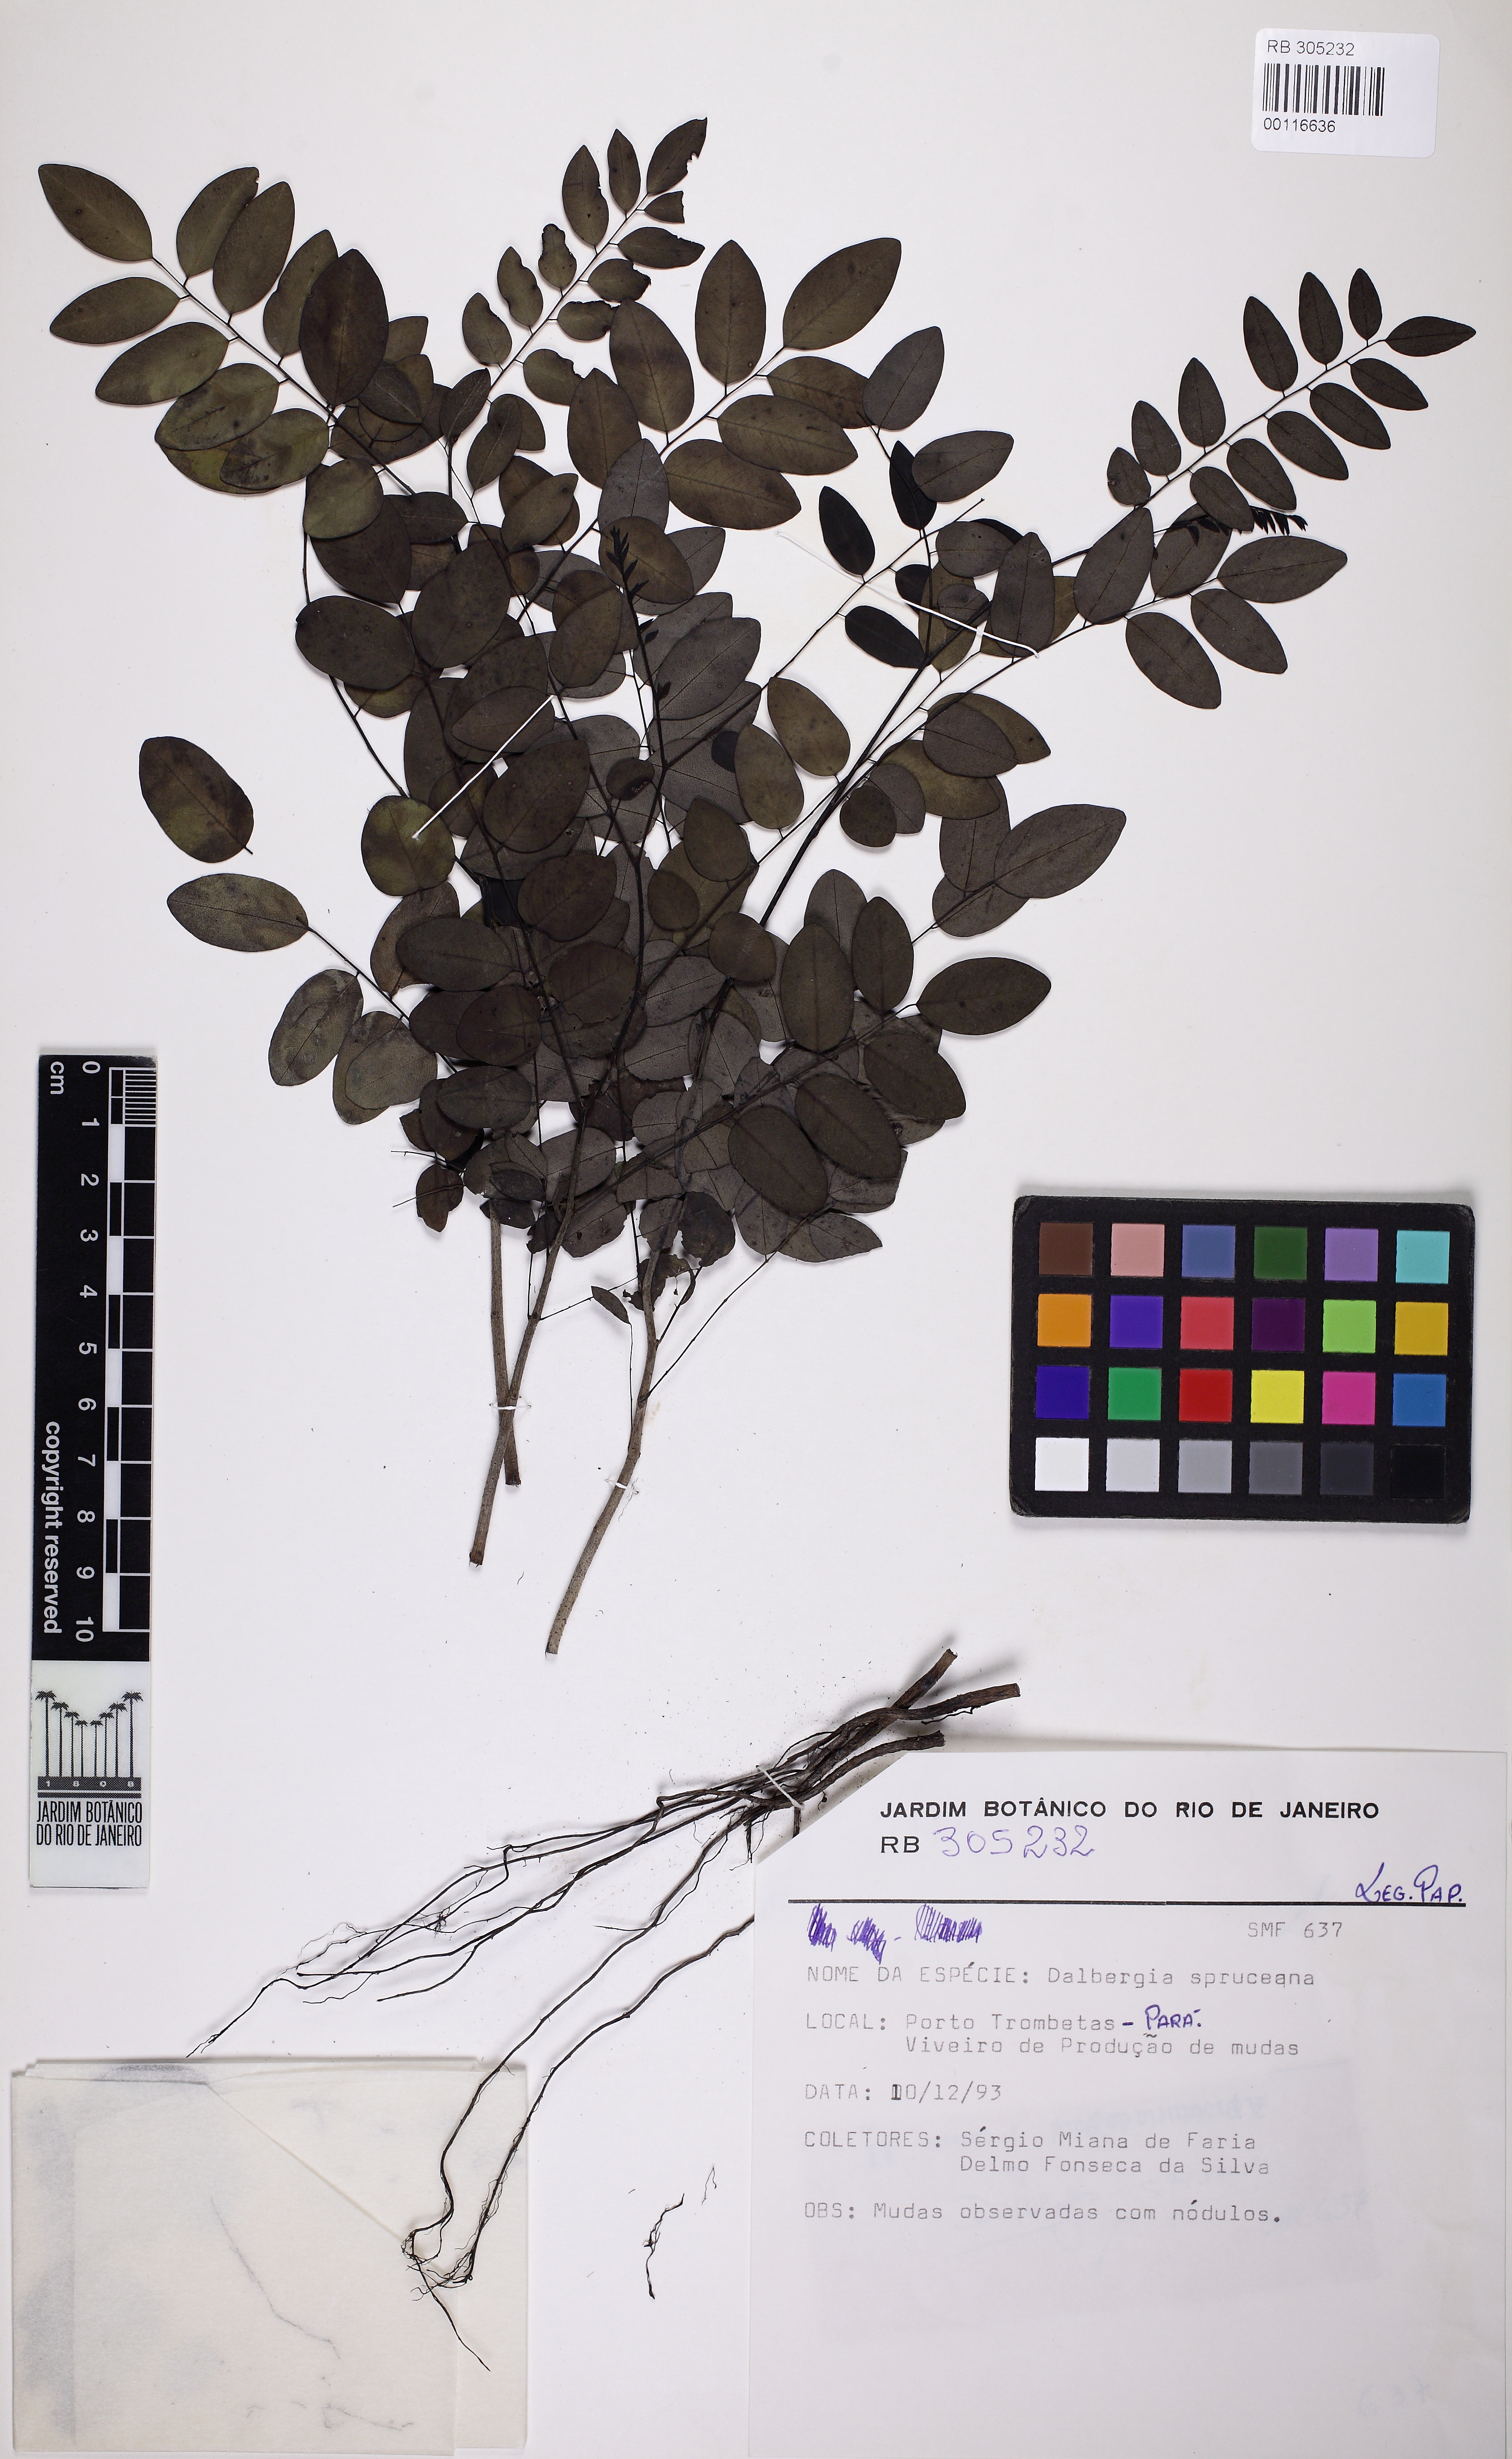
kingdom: Plantae
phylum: Tracheophyta
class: Magnoliopsida
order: Fabales
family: Fabaceae
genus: Dalbergia
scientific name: Dalbergia spruceana
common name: Amazon rosewood
